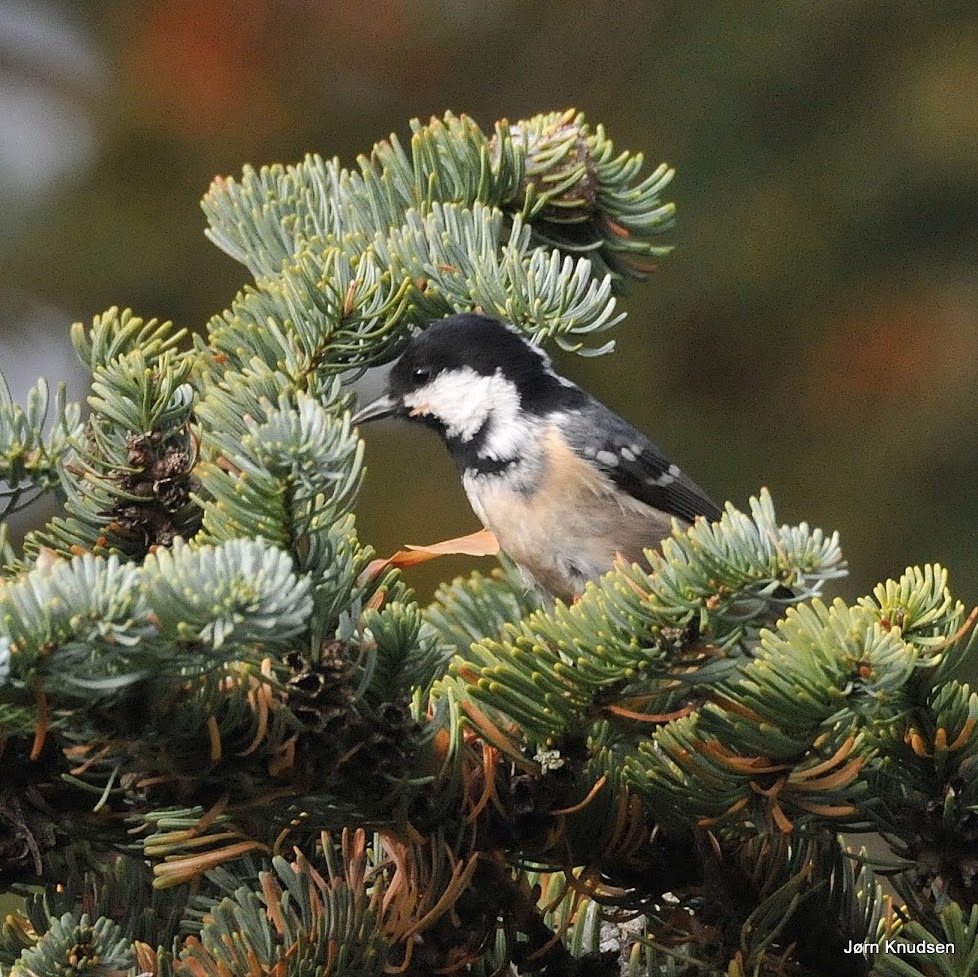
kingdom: Animalia
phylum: Chordata
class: Aves
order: Passeriformes
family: Paridae
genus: Periparus
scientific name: Periparus ater
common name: Sortmejse
